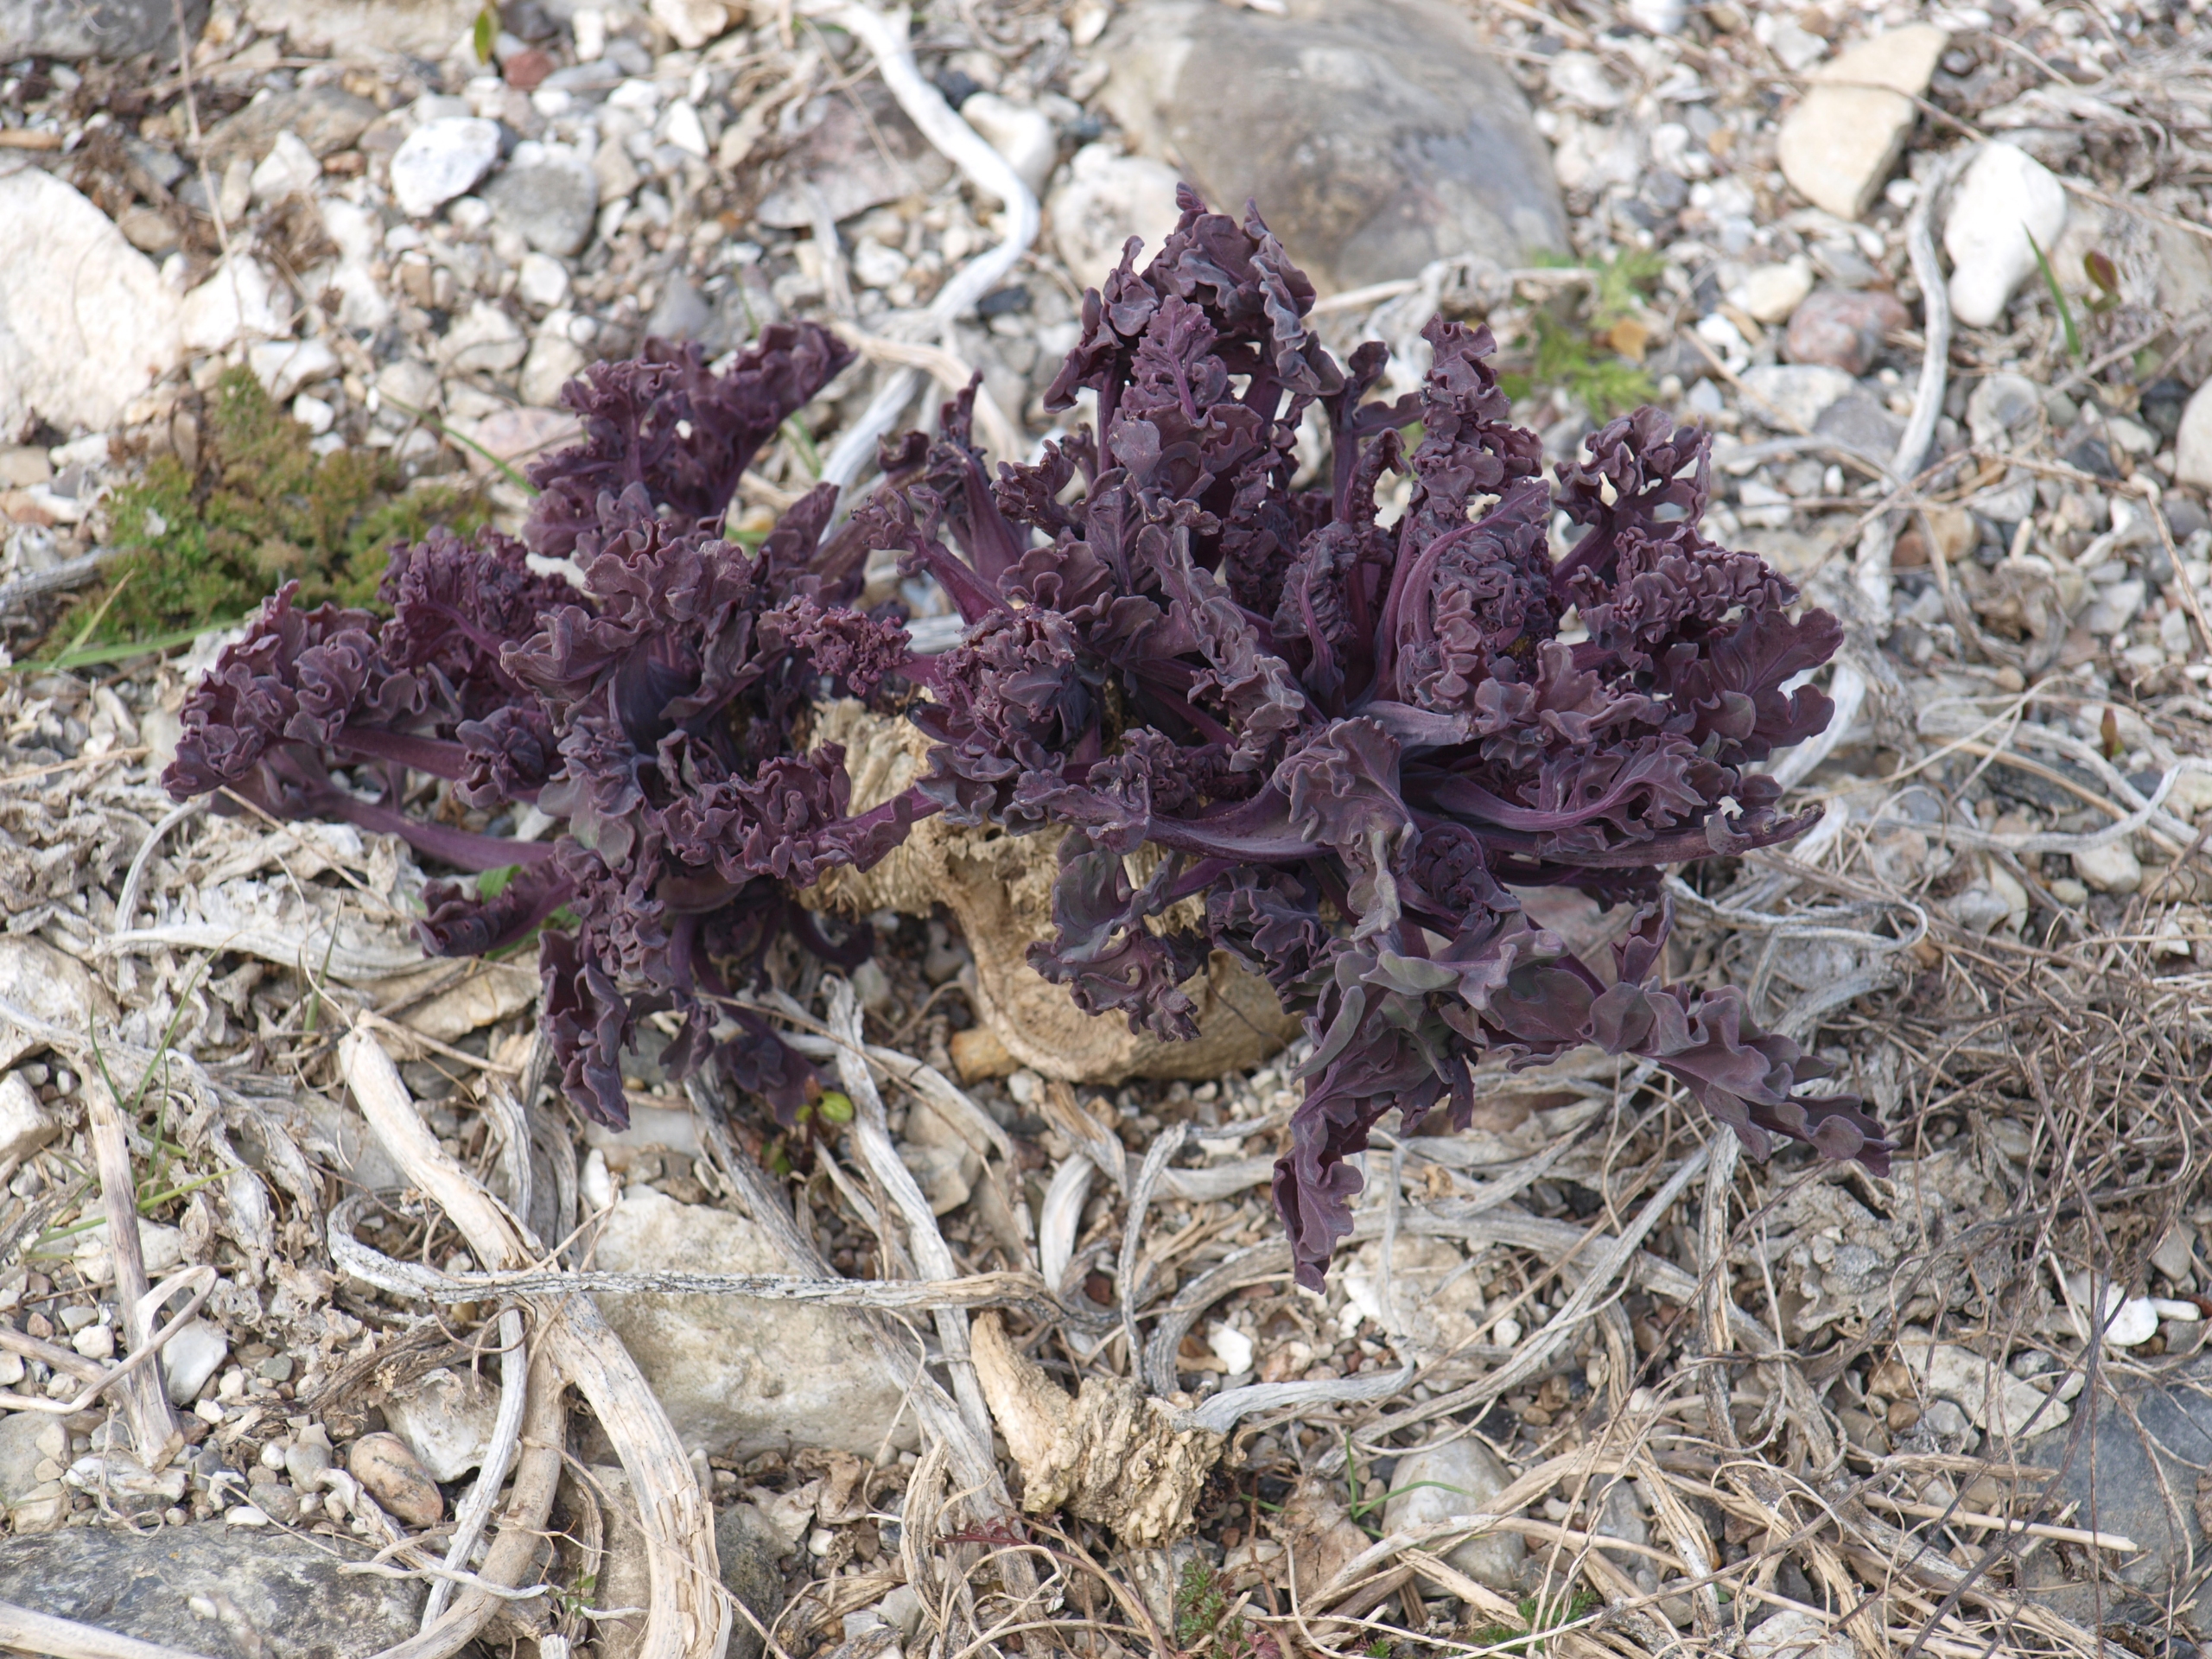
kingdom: Plantae
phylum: Tracheophyta
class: Magnoliopsida
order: Brassicales
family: Brassicaceae
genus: Crambe
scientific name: Crambe maritima
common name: Strandkål
